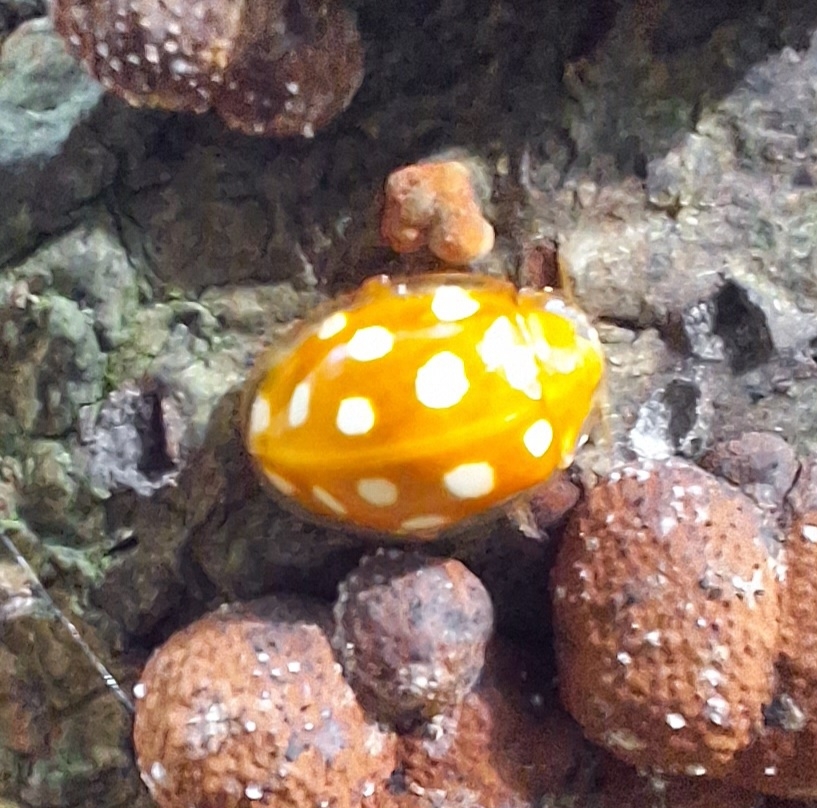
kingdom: Animalia
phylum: Arthropoda
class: Insecta
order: Coleoptera
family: Coccinellidae
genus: Halyzia
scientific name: Halyzia sedecimguttata
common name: Sekstenplettet mariehøne
